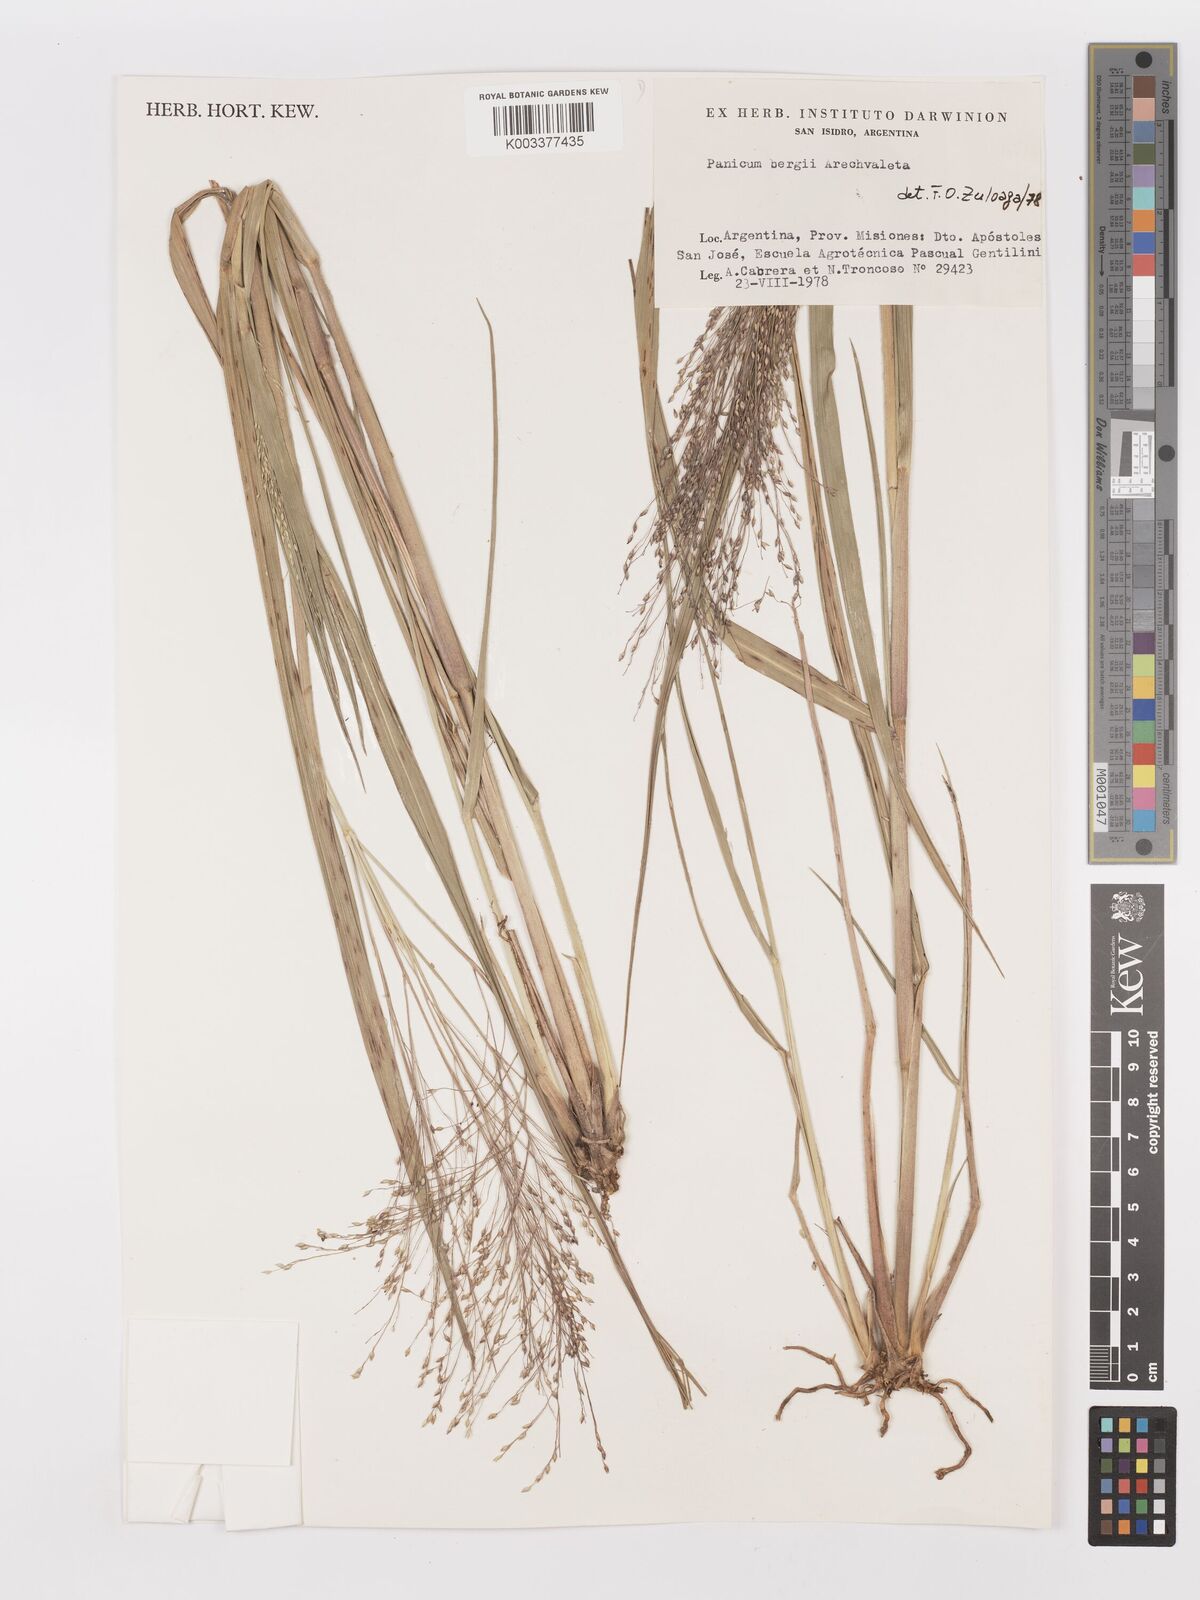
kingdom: Plantae
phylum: Tracheophyta
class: Liliopsida
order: Poales
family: Poaceae
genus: Panicum
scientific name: Panicum bergii
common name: Berg's panicgrass
